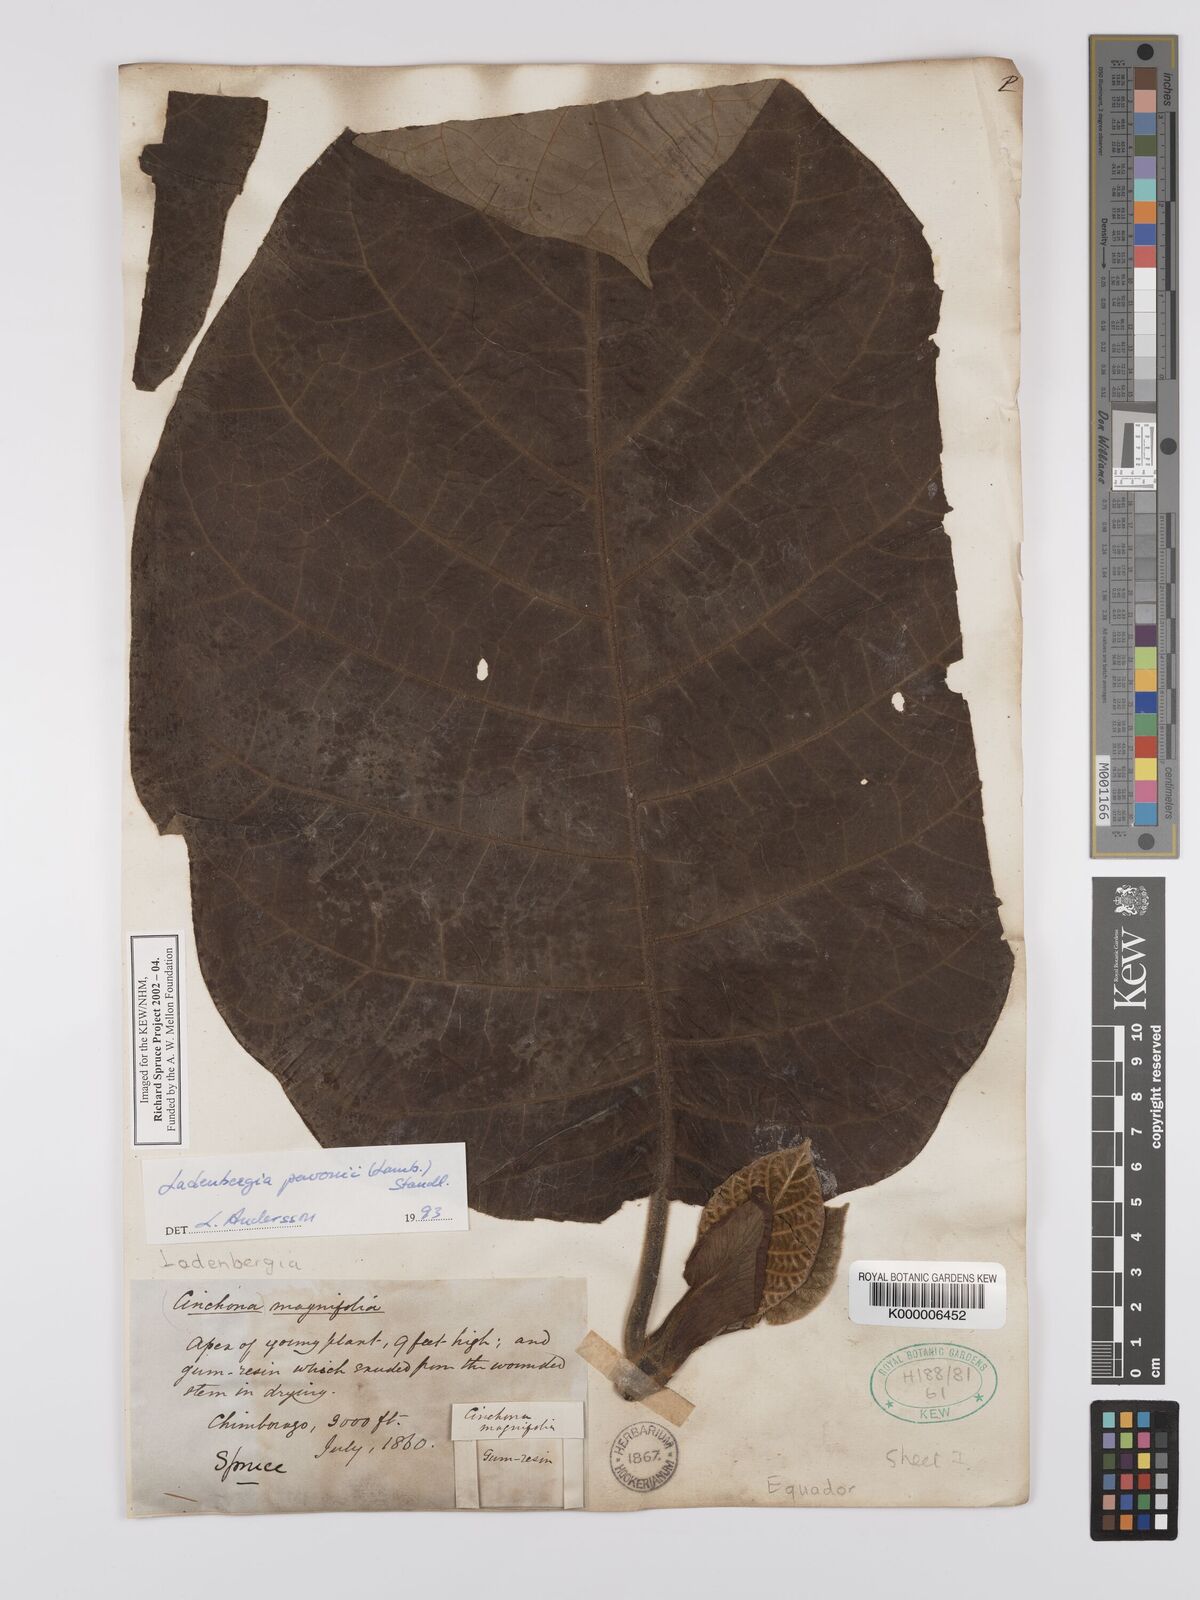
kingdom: Plantae
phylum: Tracheophyta
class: Magnoliopsida
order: Gentianales
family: Rubiaceae
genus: Ladenbergia
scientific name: Ladenbergia pavonii
